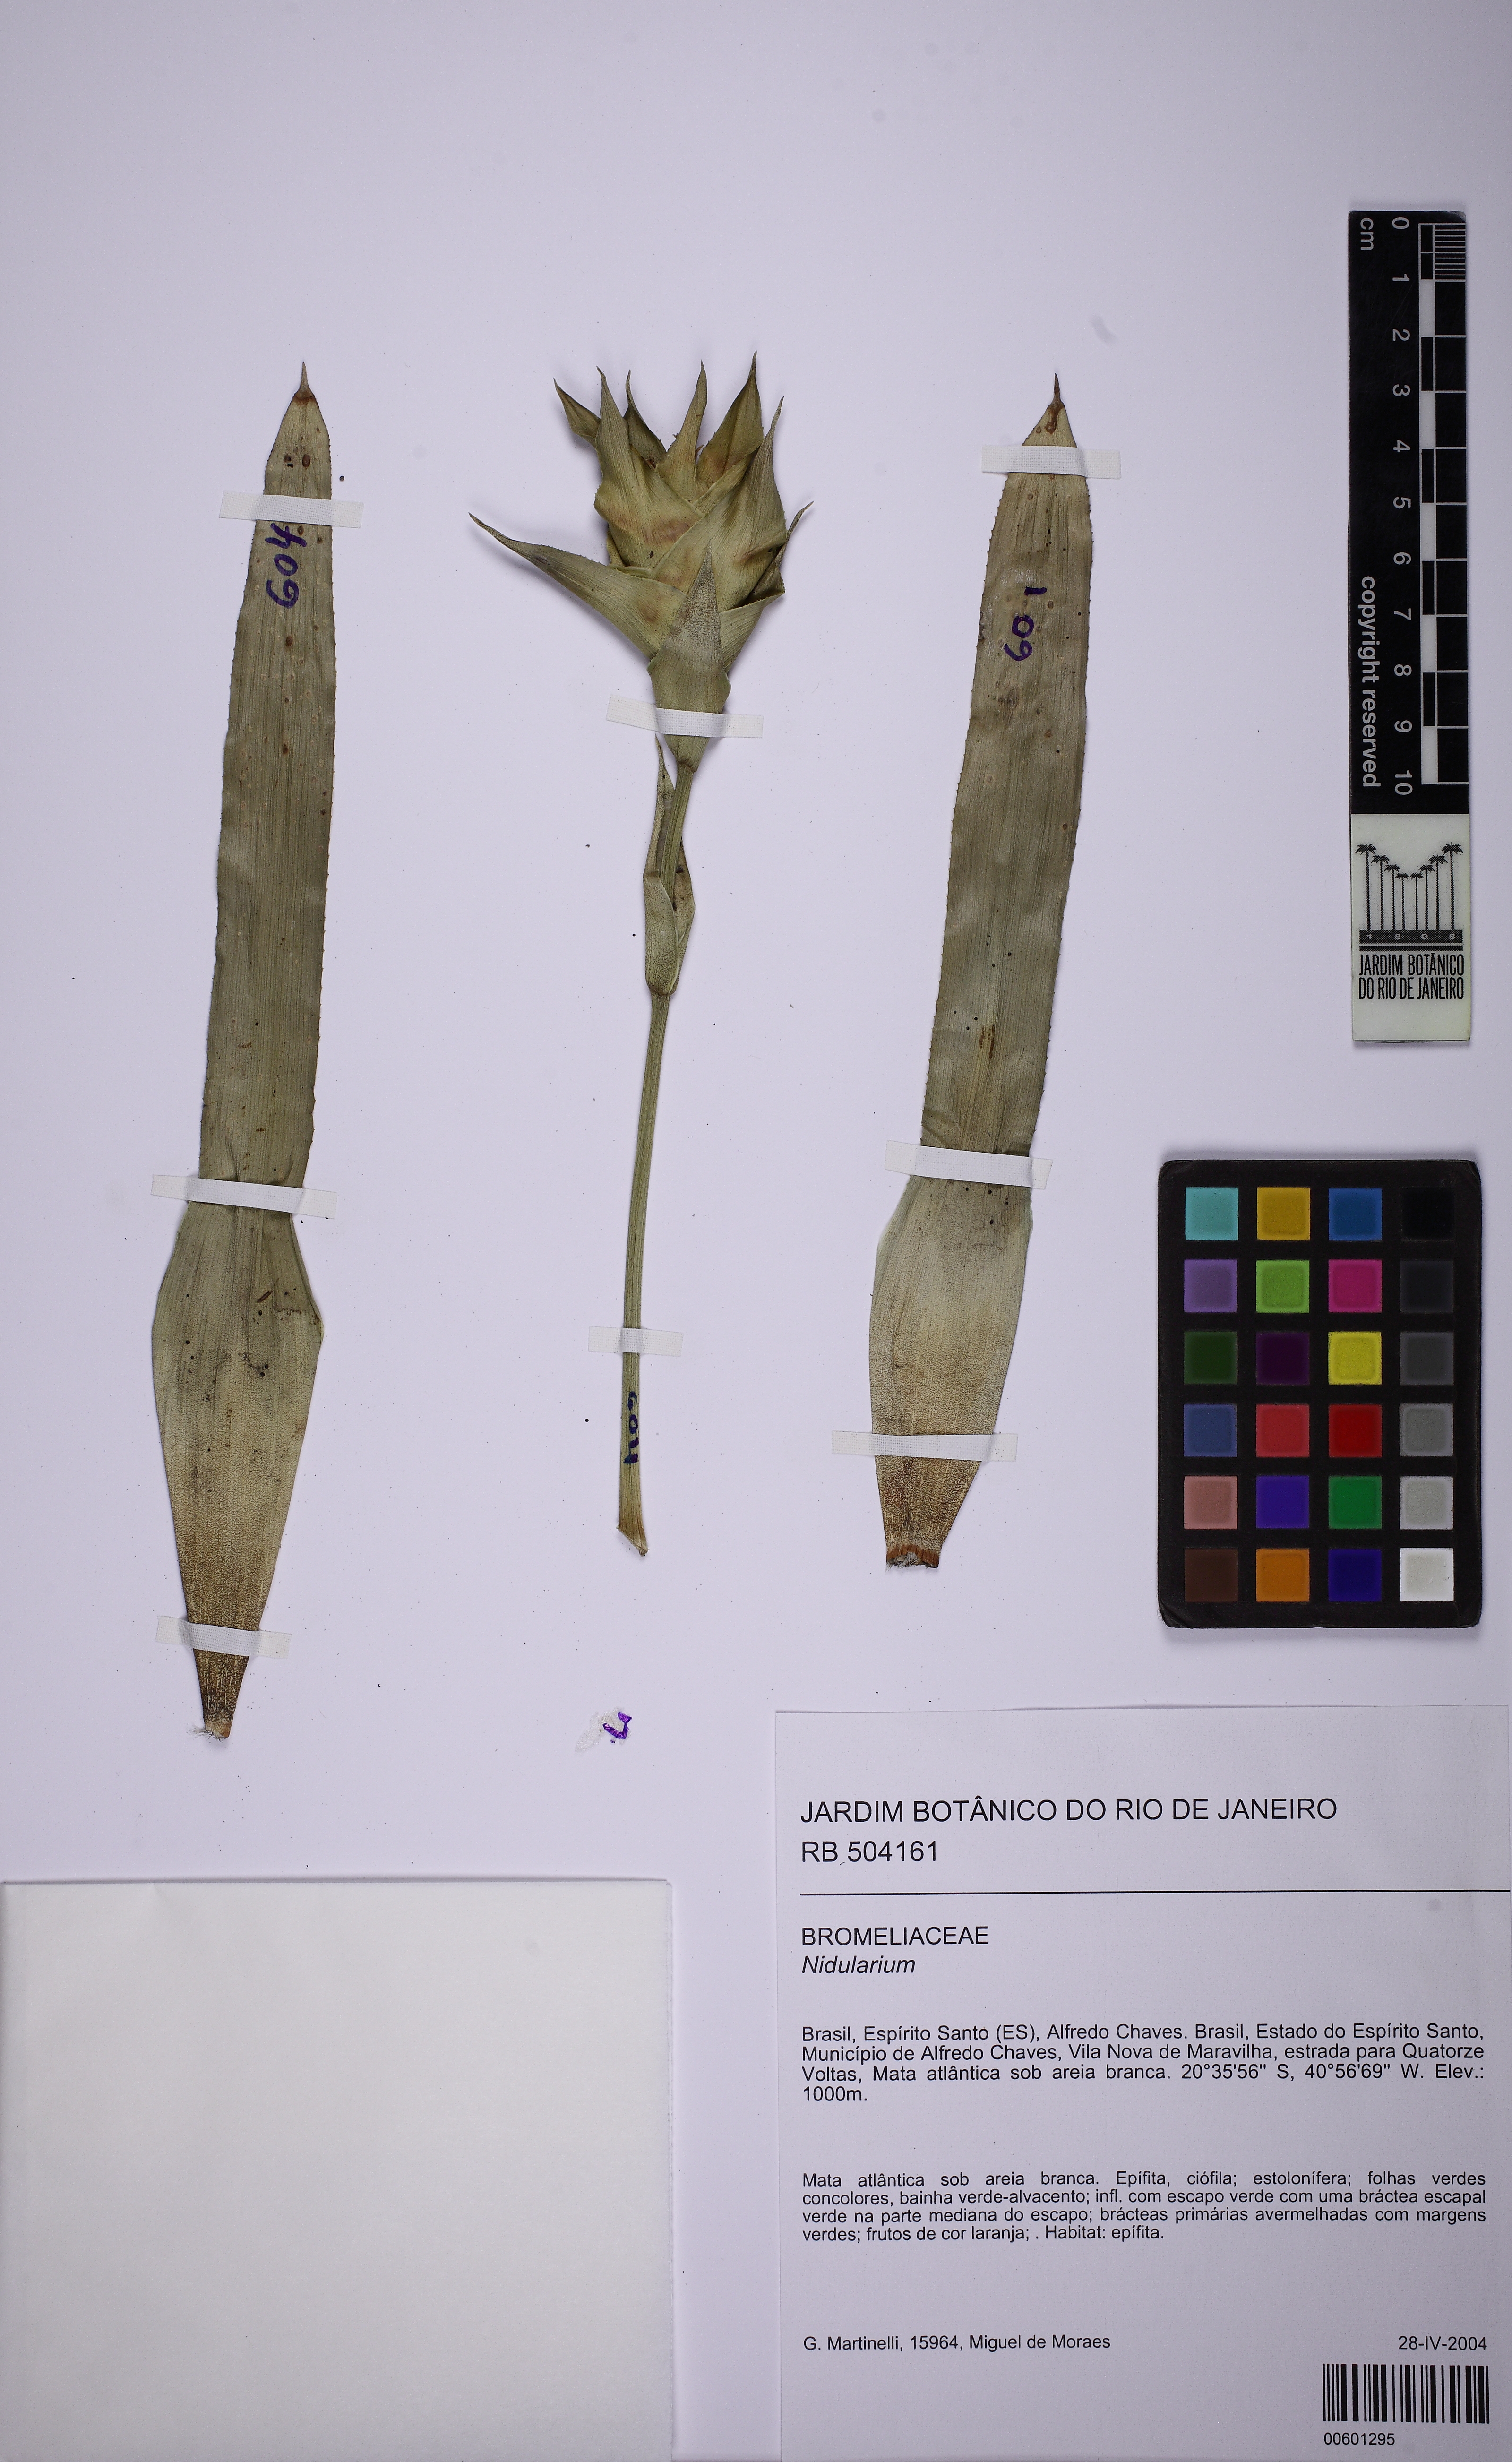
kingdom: Plantae
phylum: Tracheophyta
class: Liliopsida
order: Poales
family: Bromeliaceae
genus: Nidularium
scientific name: Nidularium
